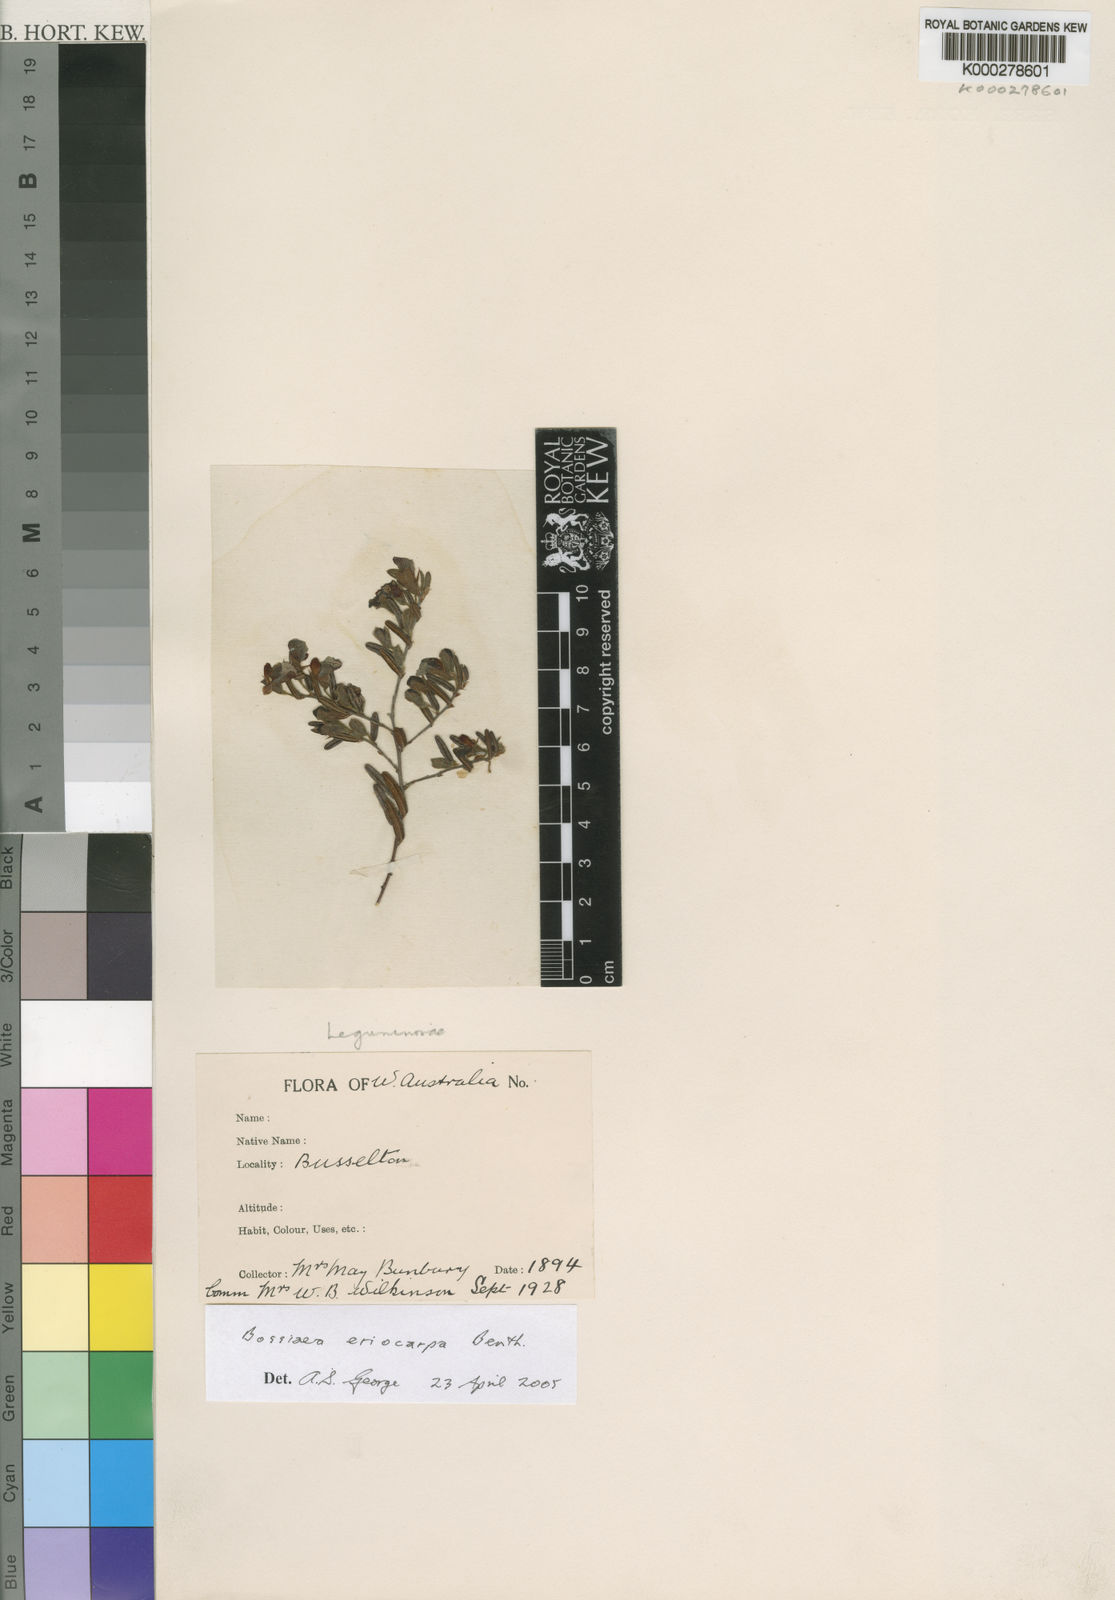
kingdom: Plantae
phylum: Tracheophyta
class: Magnoliopsida
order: Fabales
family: Fabaceae
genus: Bossiaea
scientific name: Bossiaea eriocarpa
